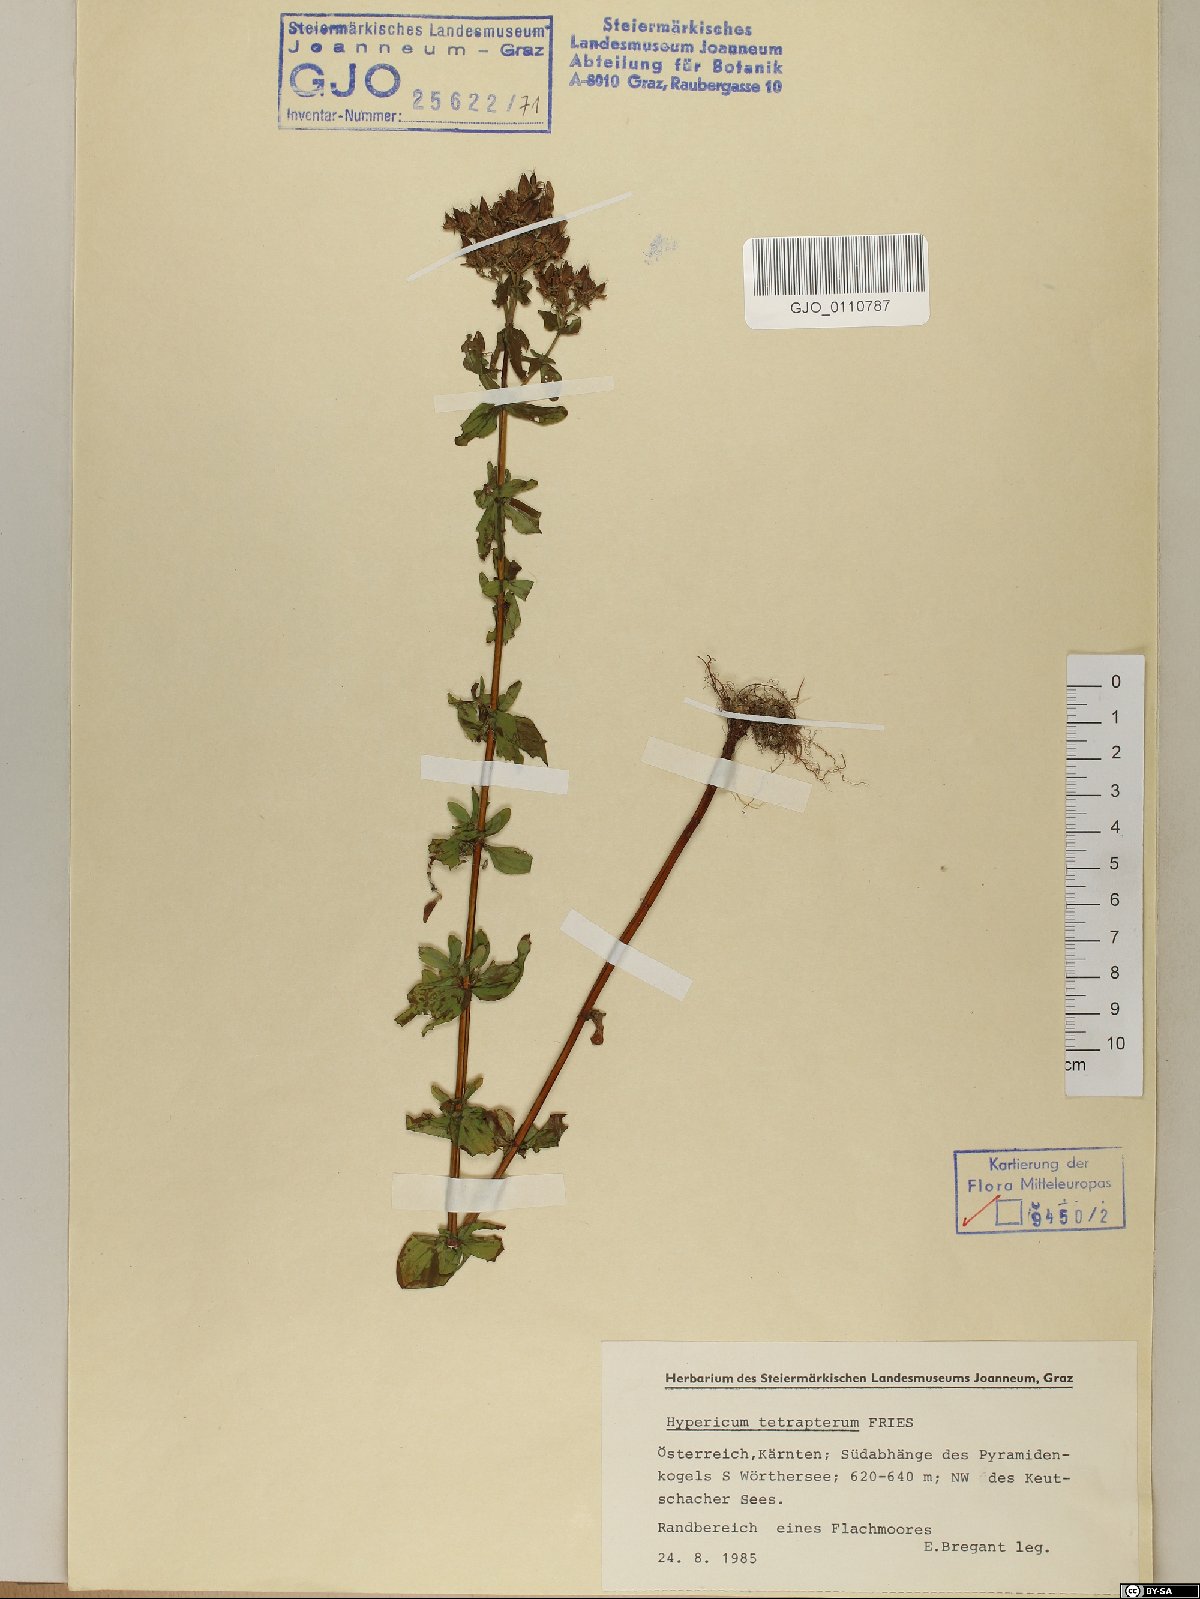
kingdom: Plantae
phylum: Tracheophyta
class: Magnoliopsida
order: Malpighiales
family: Hypericaceae
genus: Hypericum
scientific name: Hypericum tetrapterum
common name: Square-stalked st. john's-wort
